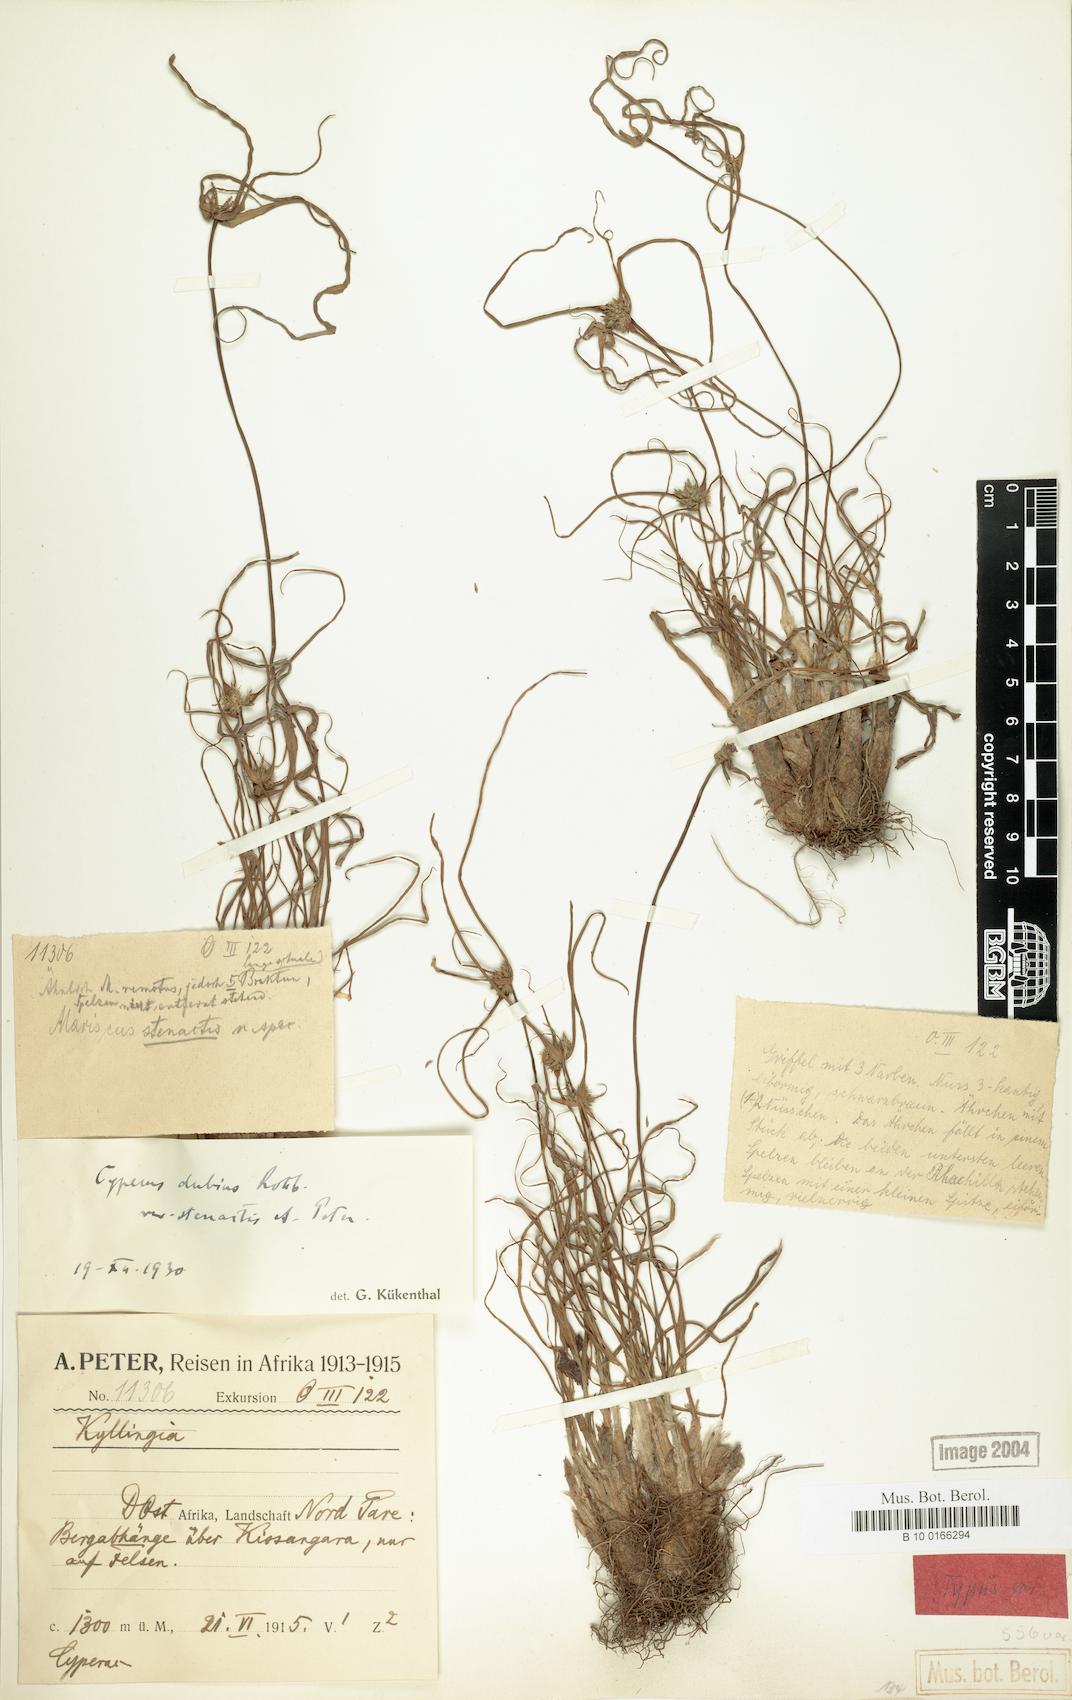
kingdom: Plantae
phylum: Tracheophyta
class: Liliopsida
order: Poales
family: Cyperaceae
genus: Cyperus
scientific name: Cyperus dubius
